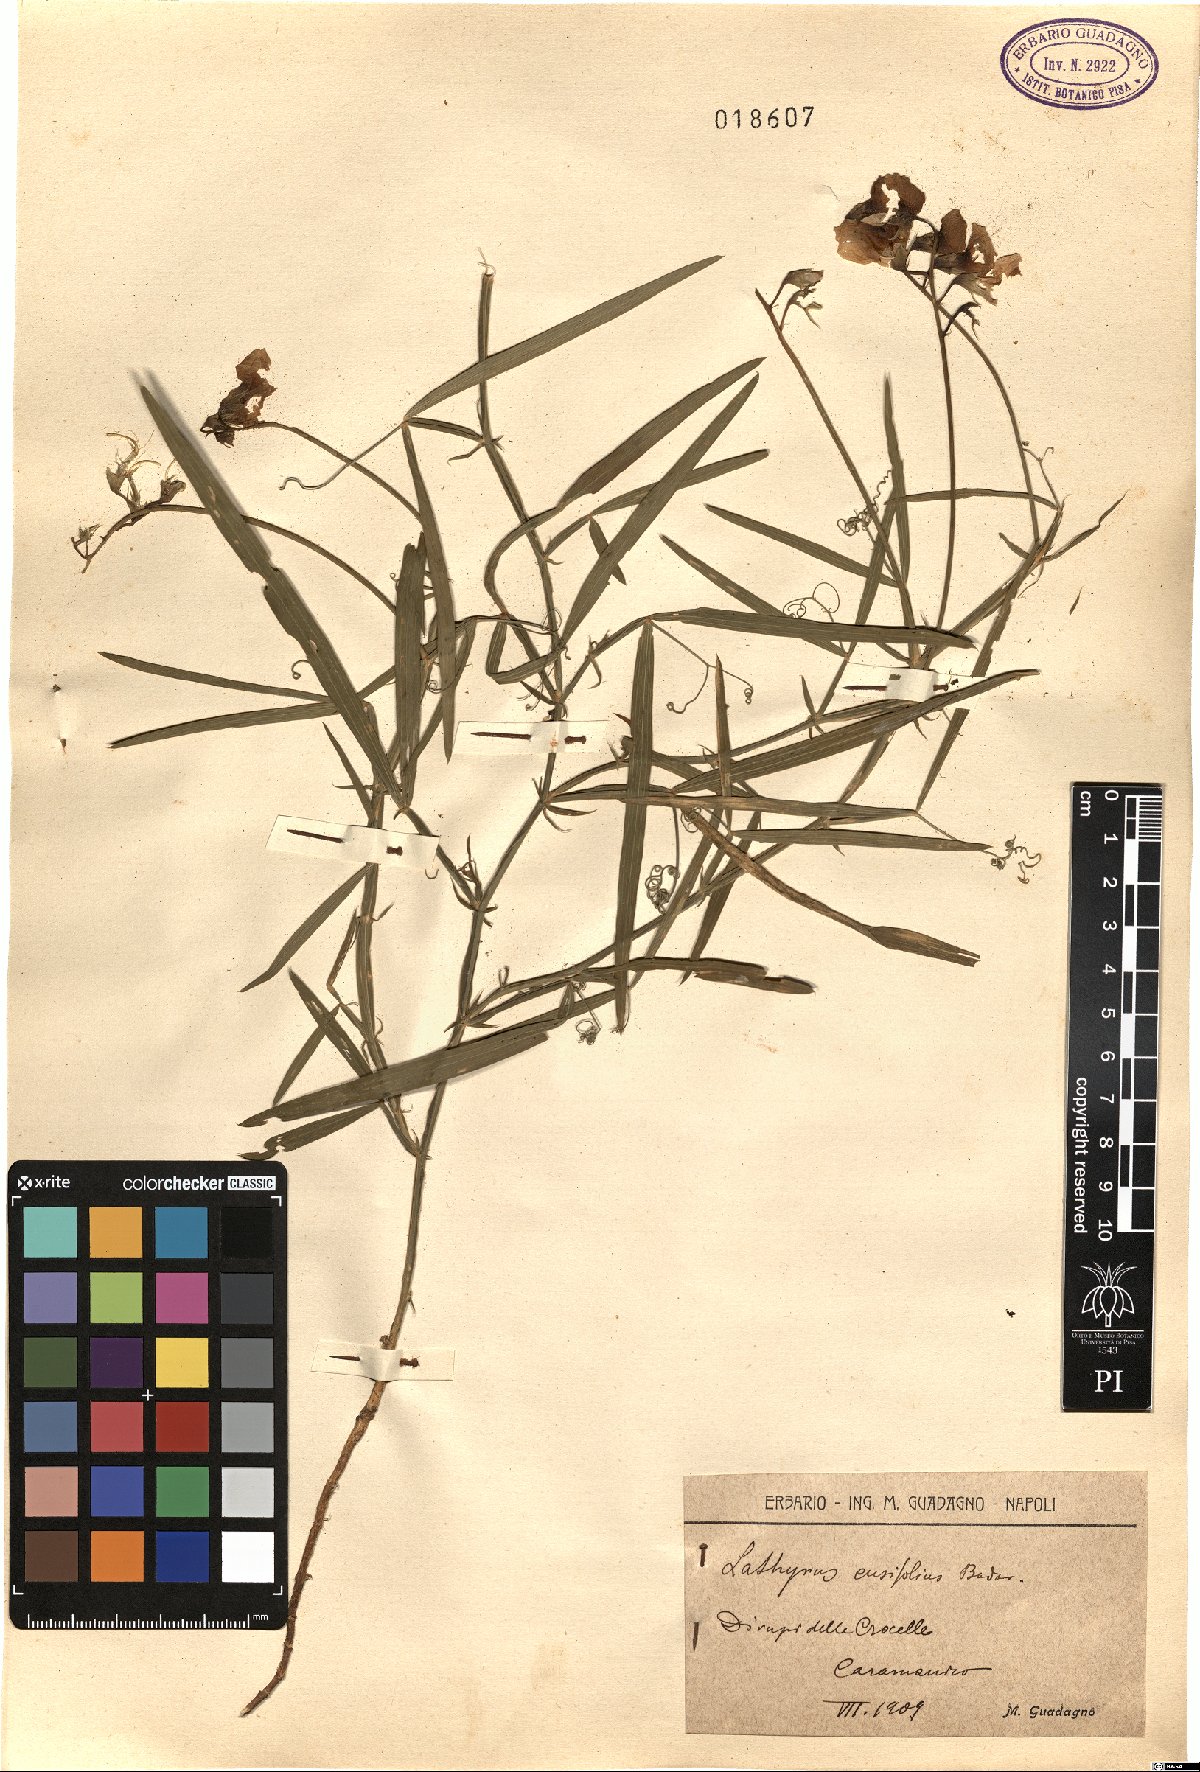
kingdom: Plantae
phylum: Tracheophyta
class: Magnoliopsida
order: Fabales
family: Fabaceae
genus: Lathyrus
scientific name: Lathyrus
